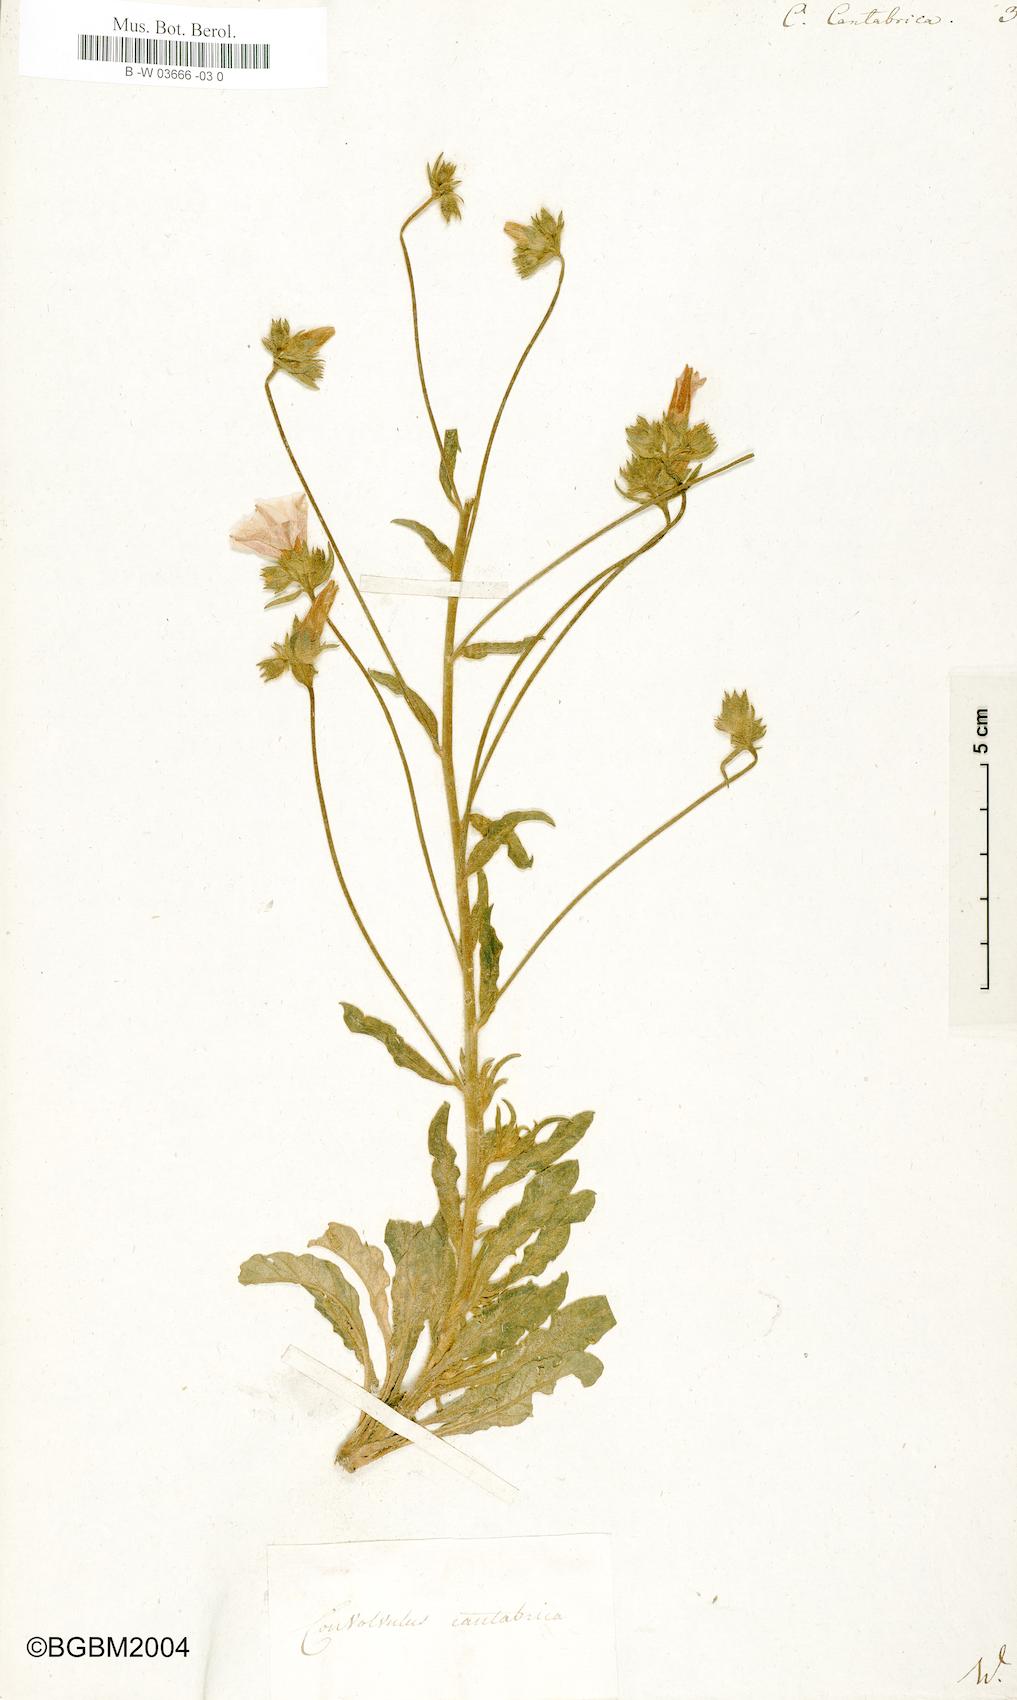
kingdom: Plantae
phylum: Tracheophyta
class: Magnoliopsida
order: Solanales
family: Convolvulaceae
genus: Convolvulus
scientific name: Convolvulus cantabrica
